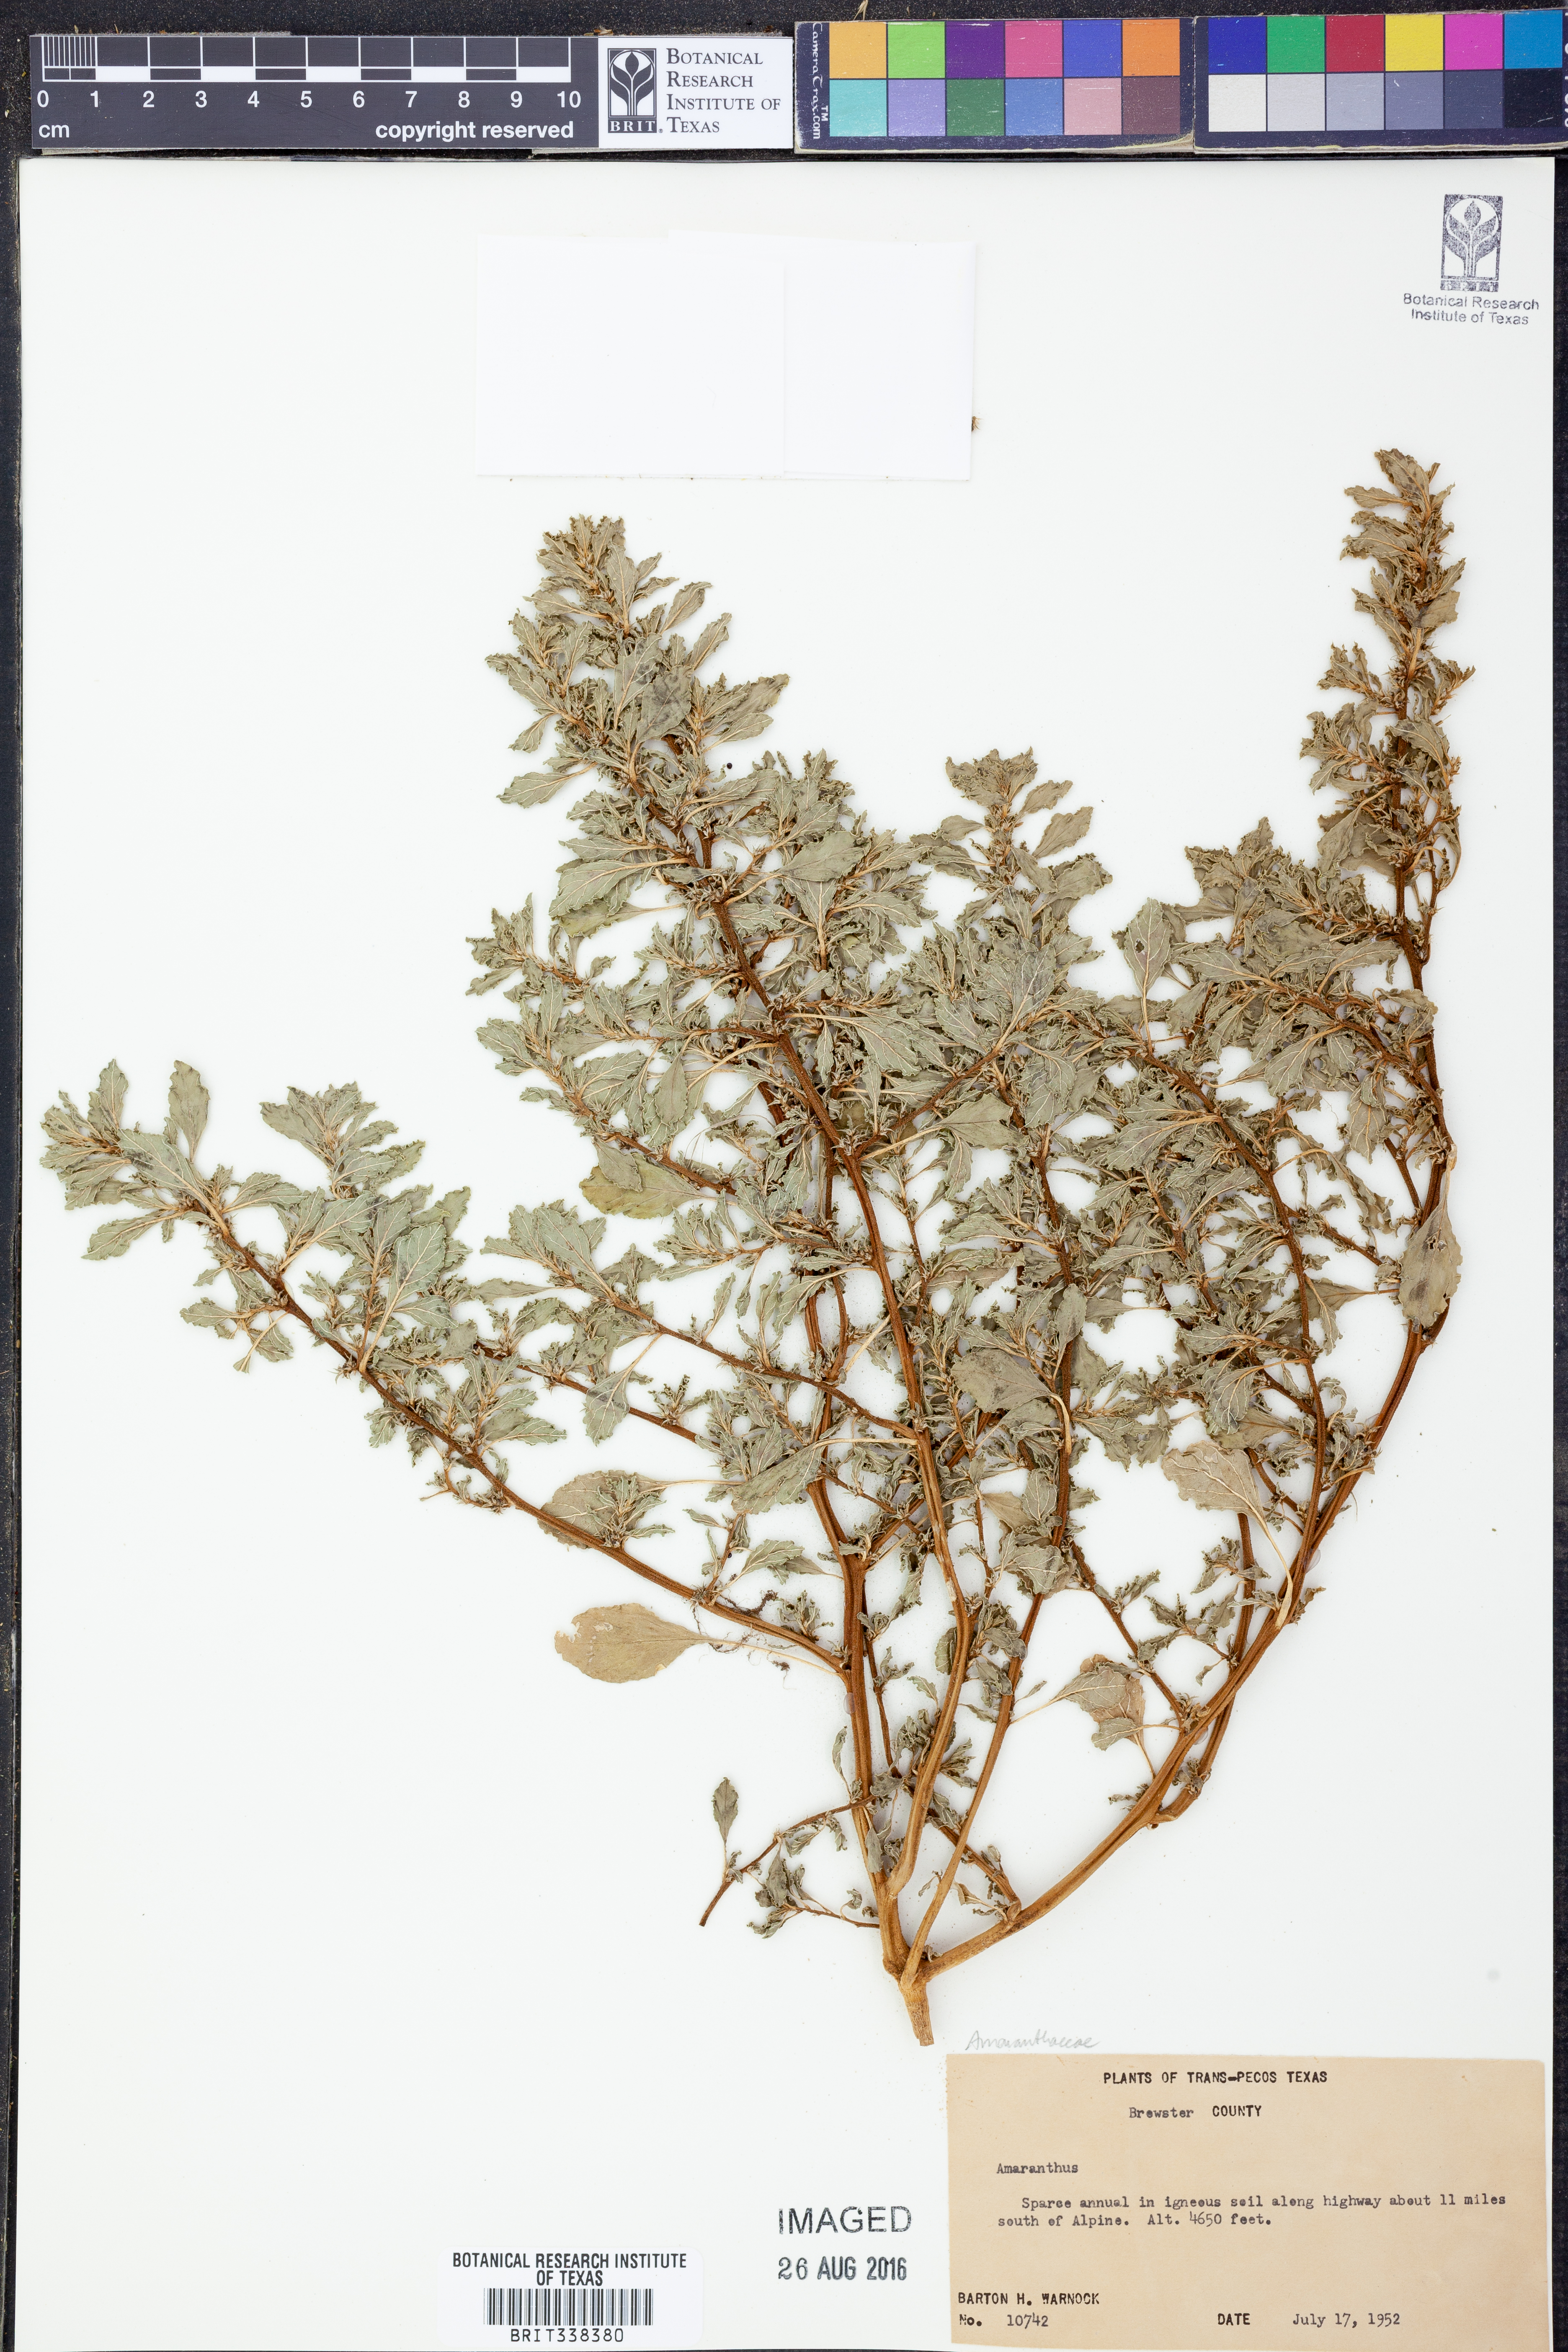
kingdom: Plantae
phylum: Tracheophyta
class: Magnoliopsida
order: Caryophyllales
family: Amaranthaceae
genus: Amaranthus
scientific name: Amaranthus
